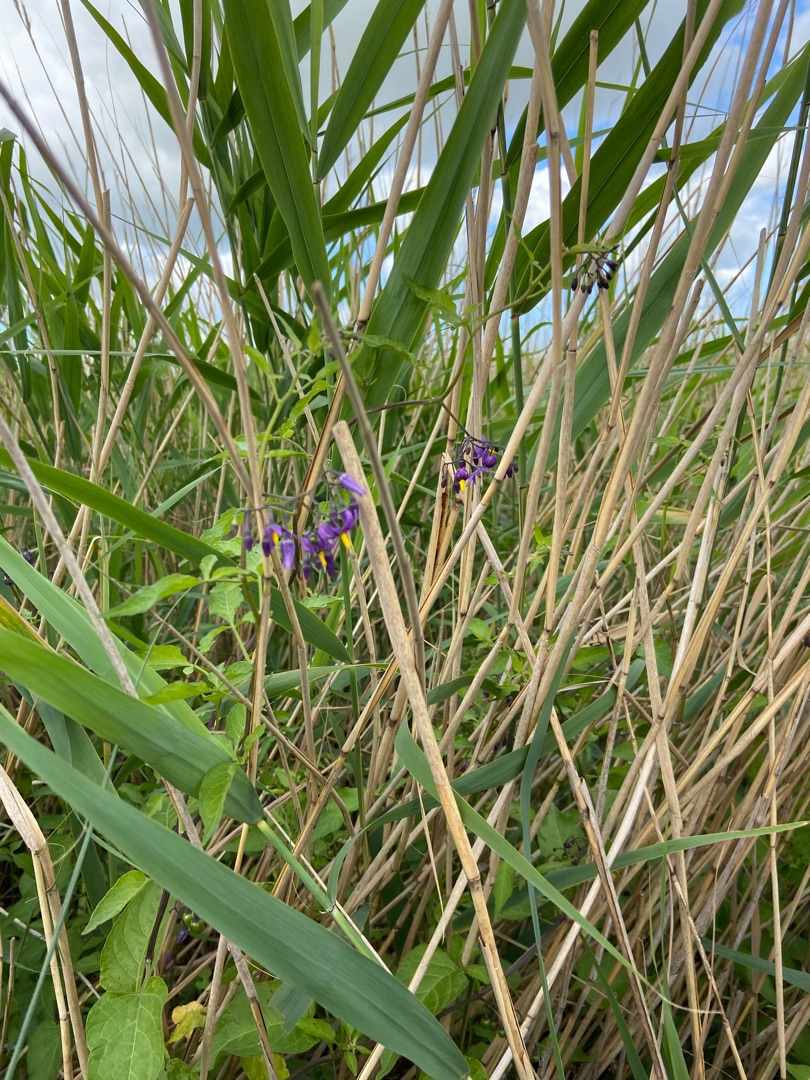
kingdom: Plantae
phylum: Tracheophyta
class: Magnoliopsida
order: Solanales
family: Solanaceae
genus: Solanum
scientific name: Solanum dulcamara
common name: Bittersød natskygge
